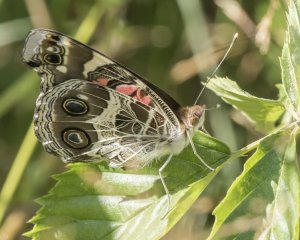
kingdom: Animalia
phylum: Arthropoda
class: Insecta
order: Lepidoptera
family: Nymphalidae
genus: Vanessa
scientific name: Vanessa virginiensis
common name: American Lady
